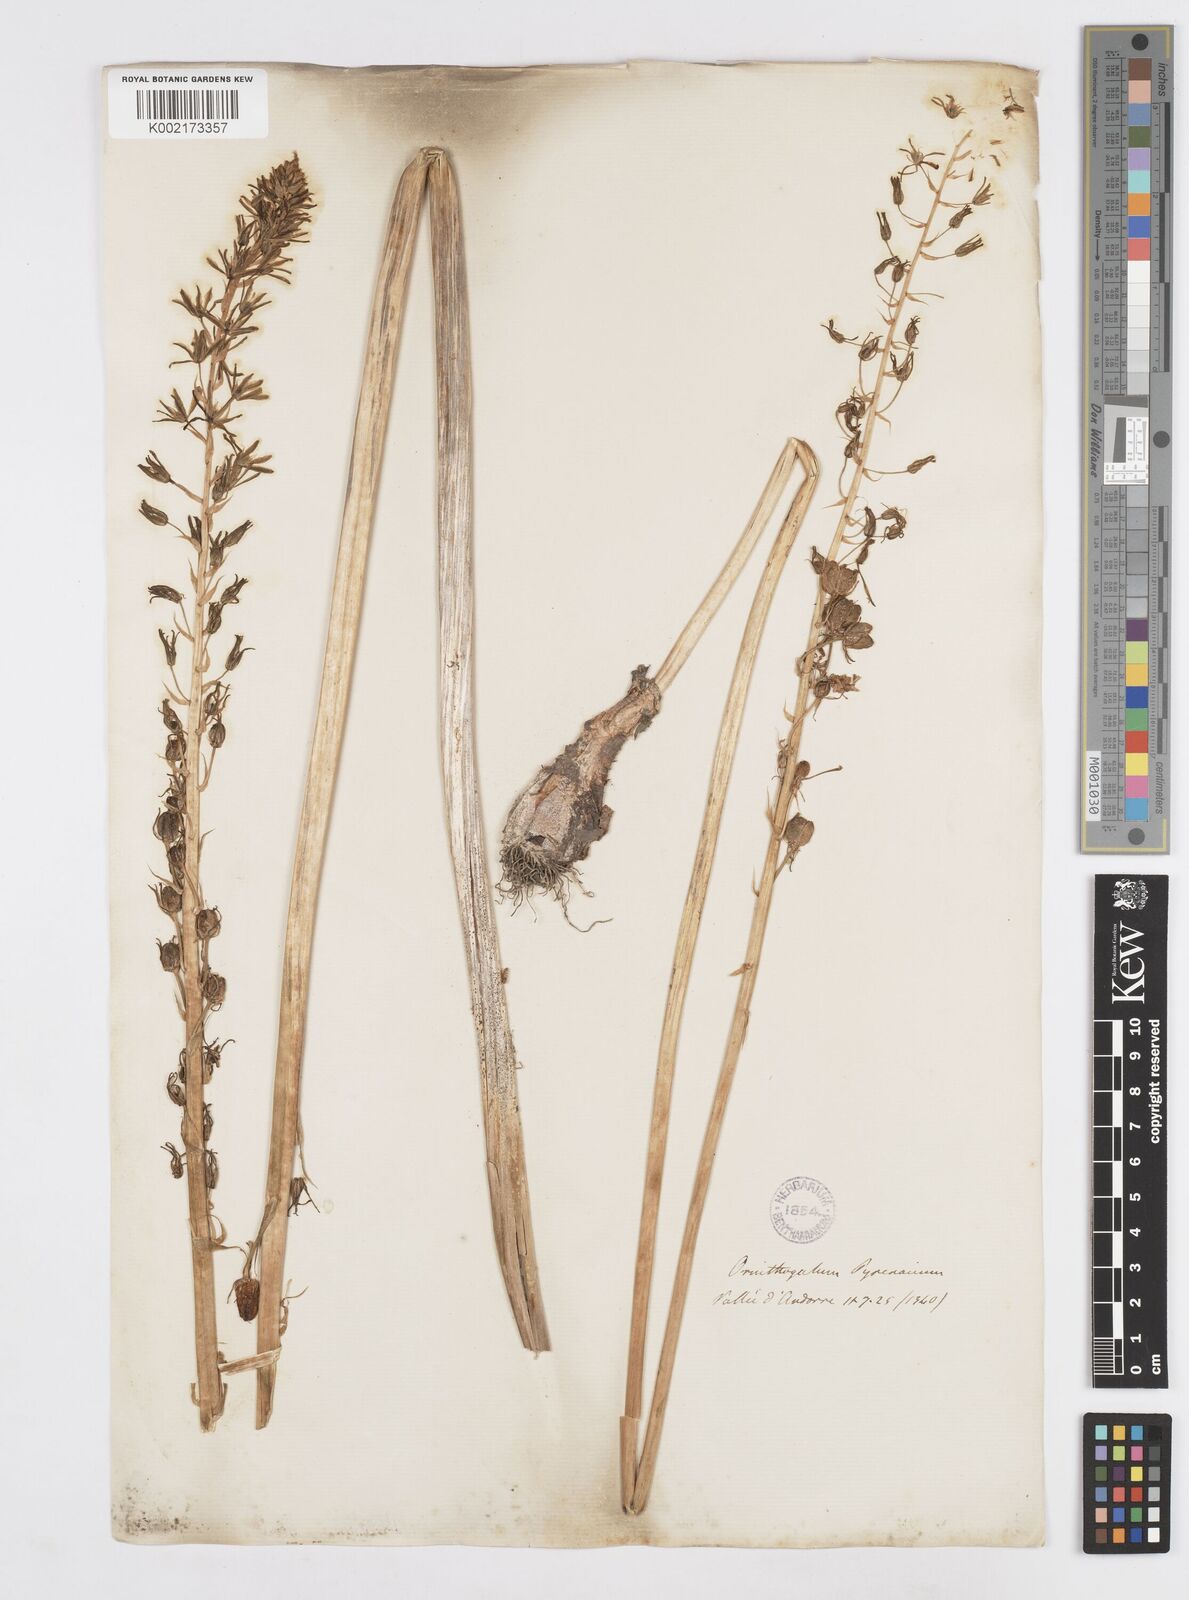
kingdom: Plantae
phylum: Tracheophyta
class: Liliopsida
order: Asparagales
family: Asparagaceae
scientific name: Asparagaceae
